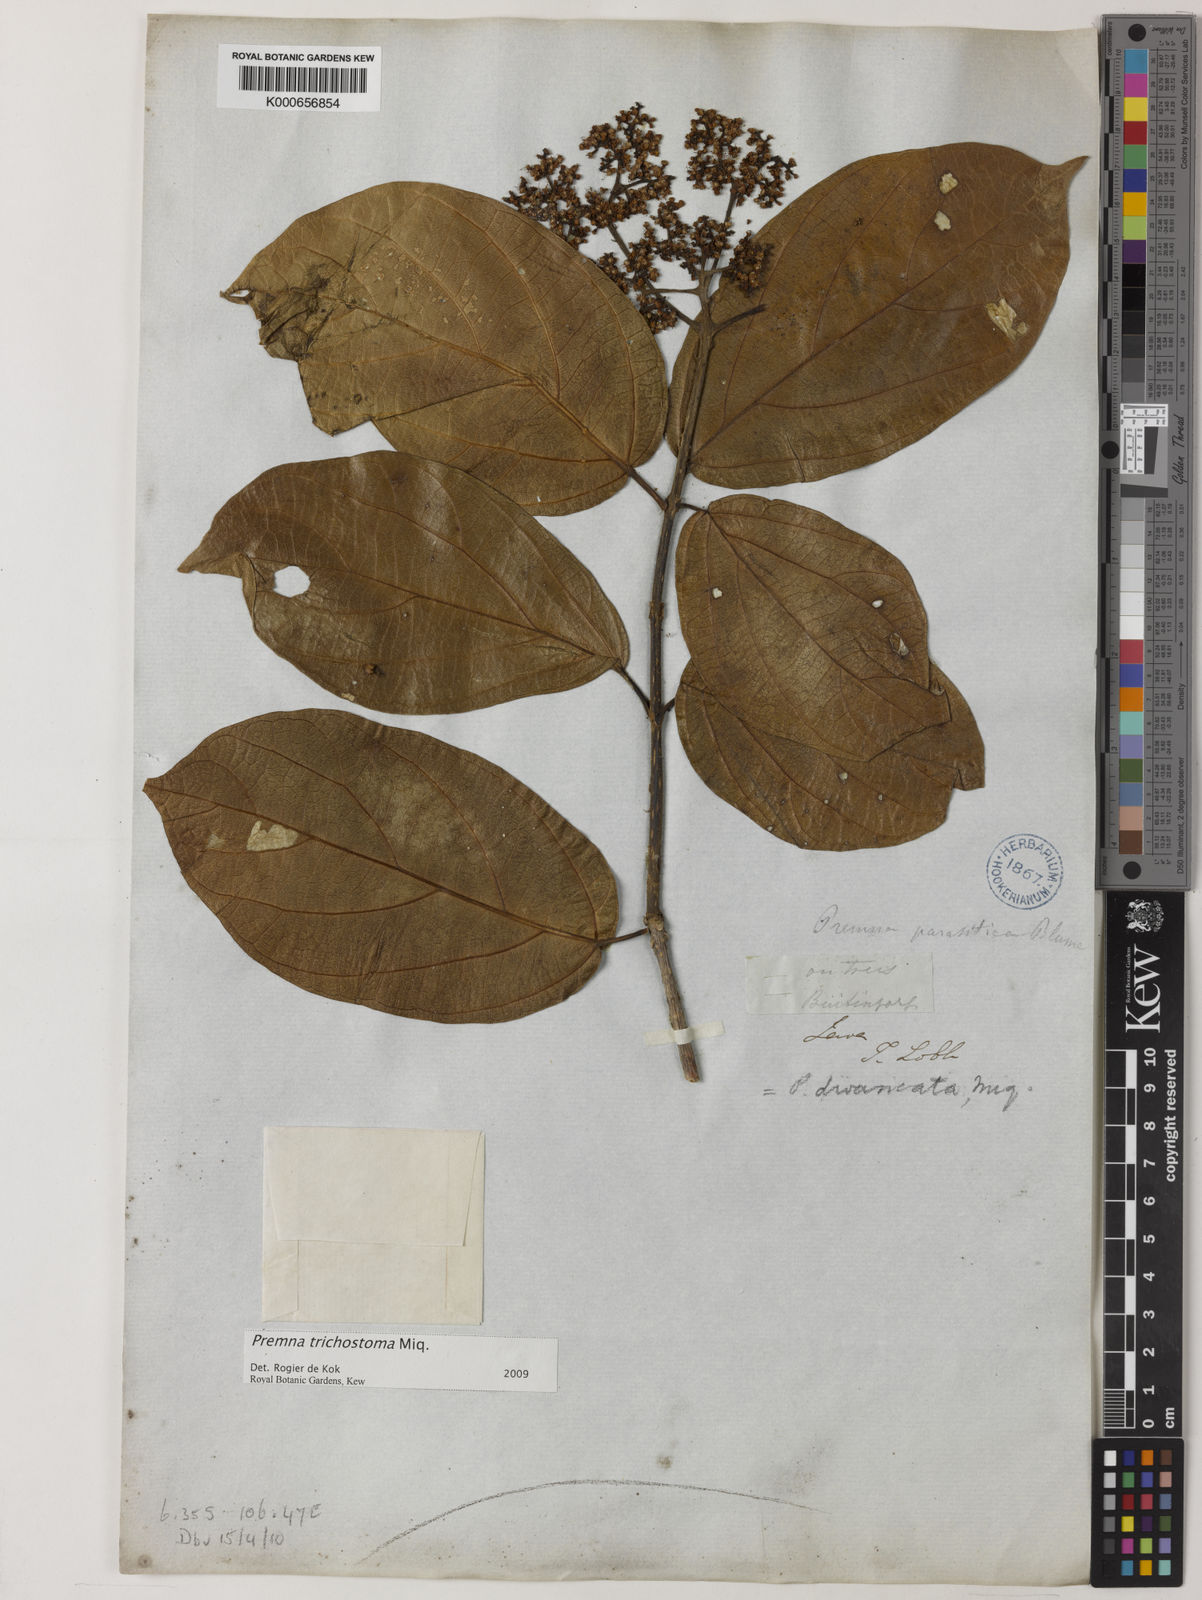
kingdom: Plantae
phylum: Tracheophyta
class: Magnoliopsida
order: Lamiales
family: Lamiaceae
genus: Premna
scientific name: Premna trichostoma
